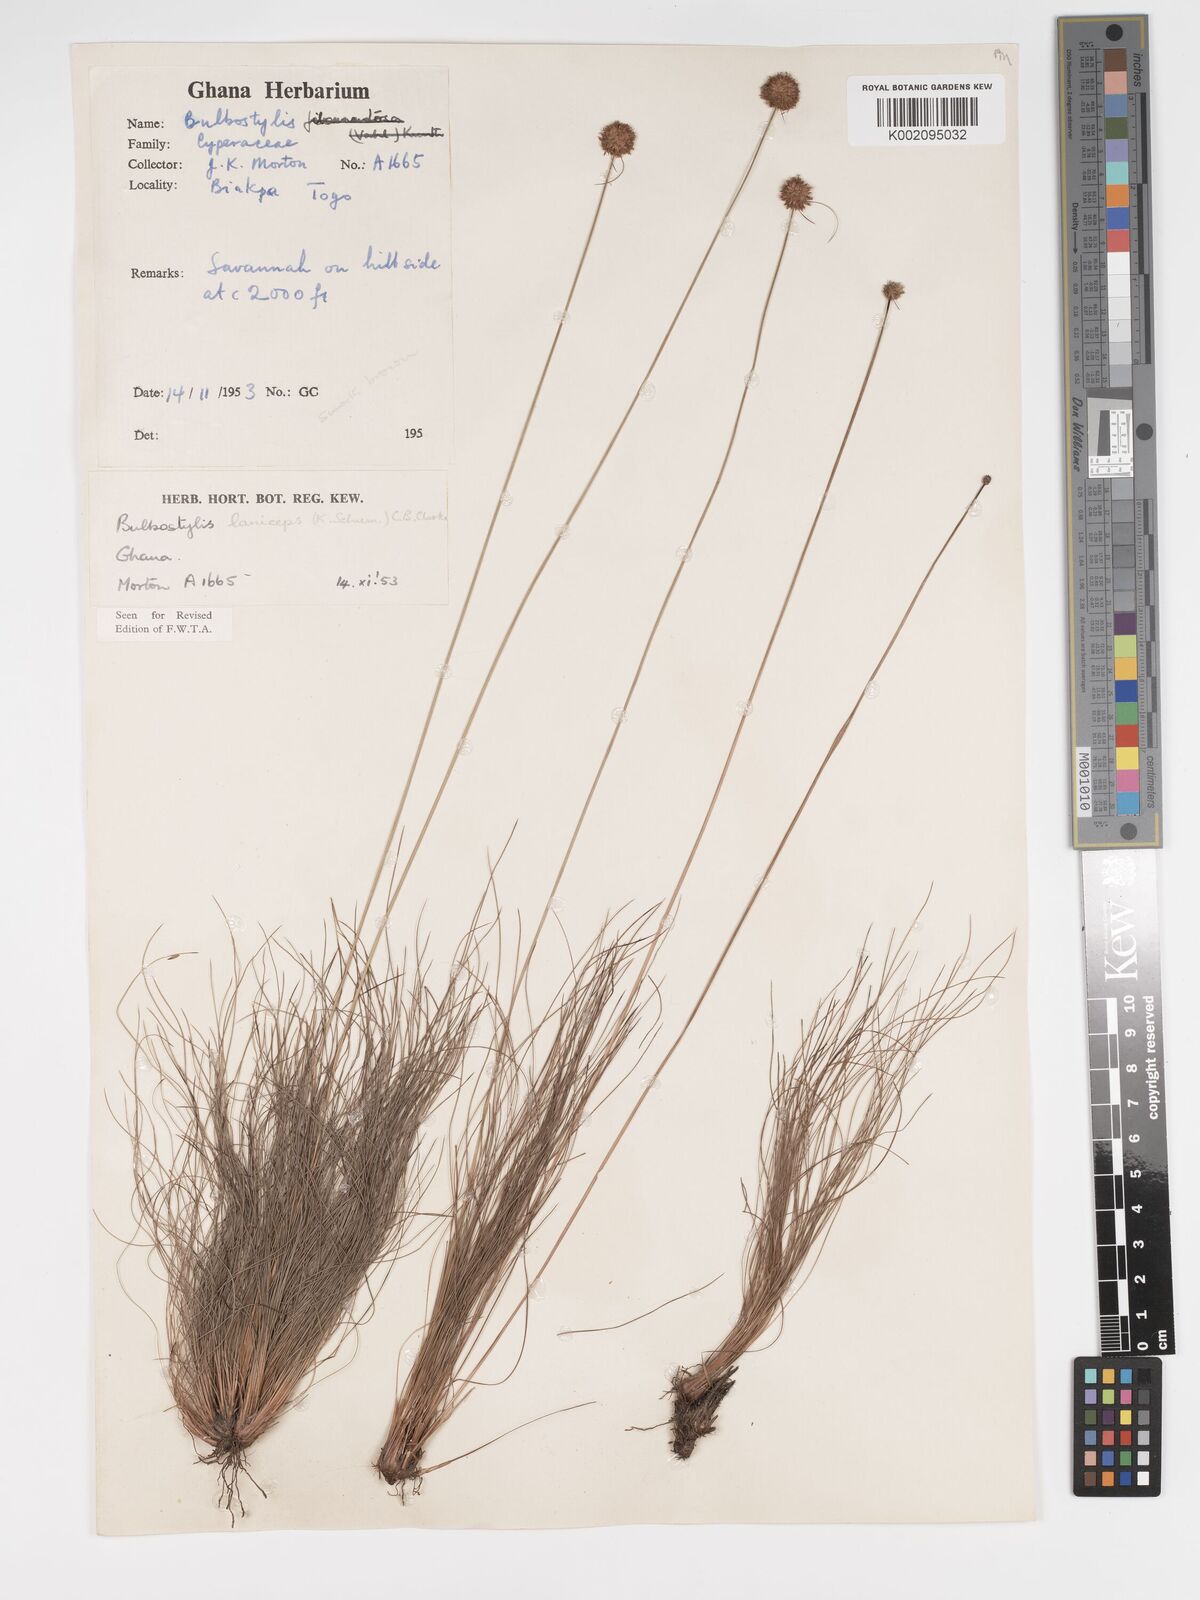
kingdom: Plantae
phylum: Tracheophyta
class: Liliopsida
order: Poales
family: Cyperaceae
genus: Bulbostylis
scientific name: Bulbostylis laniceps
